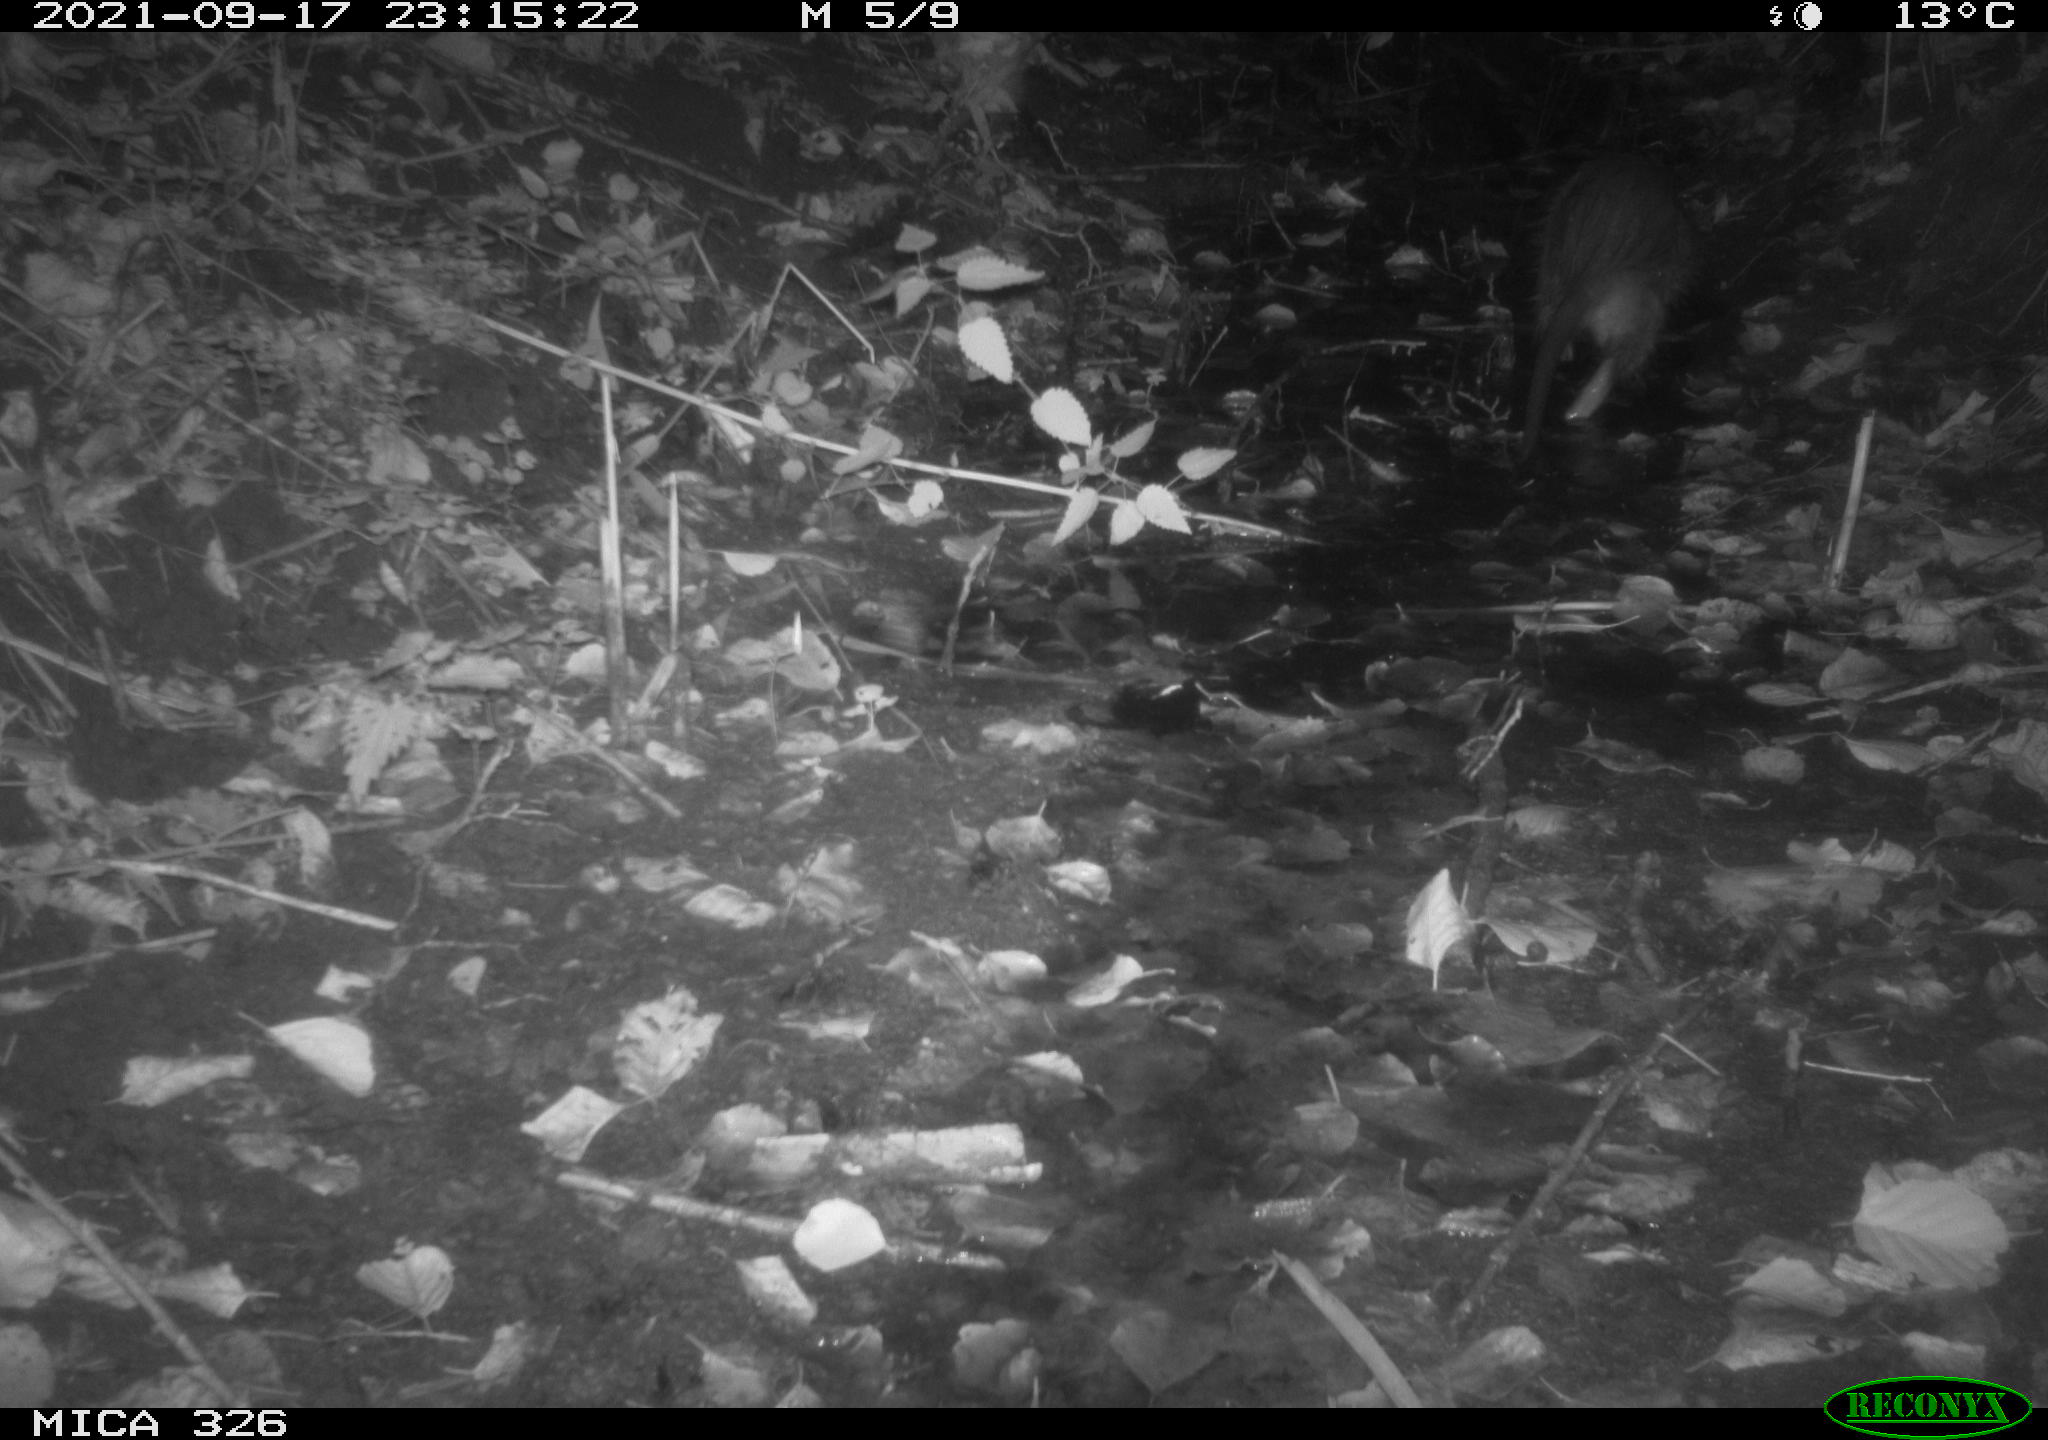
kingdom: Animalia
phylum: Chordata
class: Mammalia
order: Rodentia
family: Myocastoridae
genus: Myocastor
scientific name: Myocastor coypus
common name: Coypu
